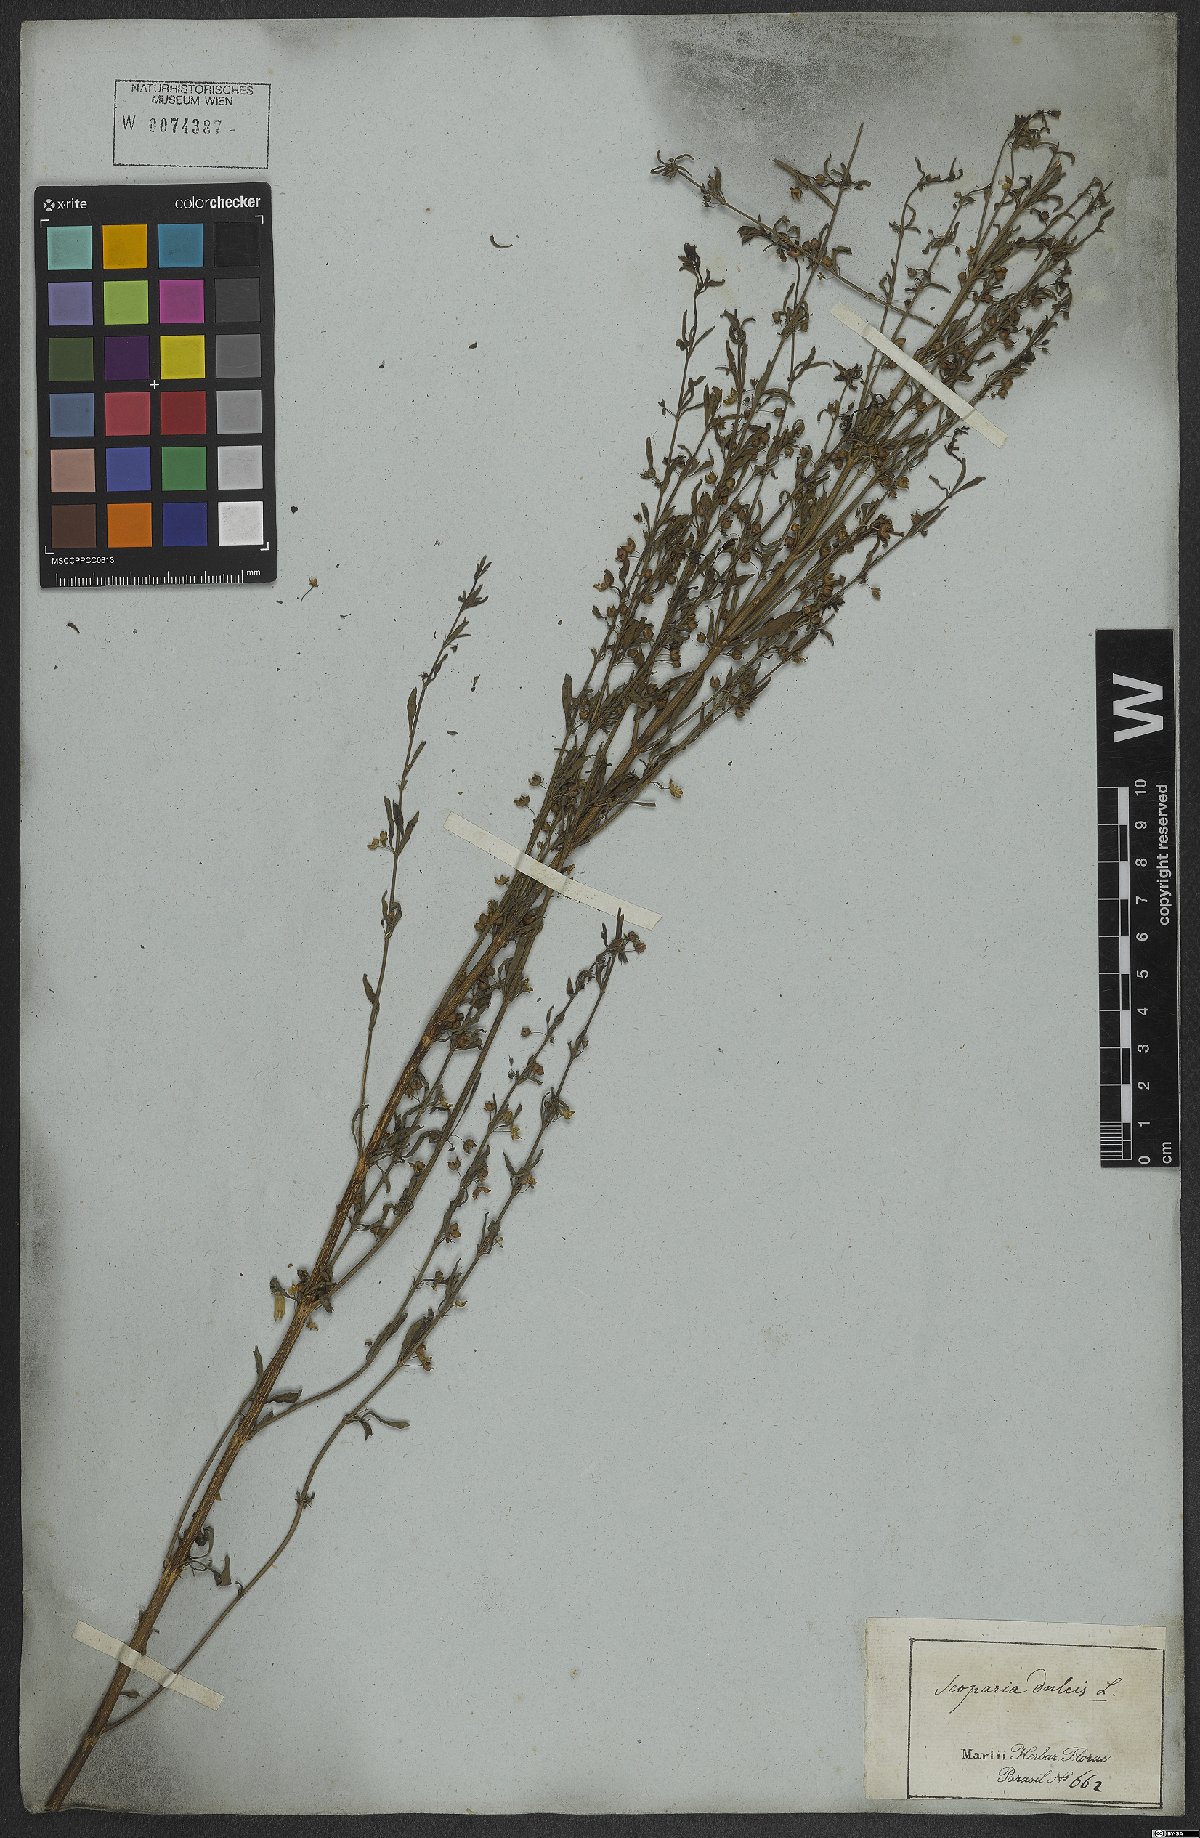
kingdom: Plantae
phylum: Tracheophyta
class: Magnoliopsida
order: Lamiales
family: Plantaginaceae
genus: Scoparia
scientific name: Scoparia dulcis
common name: Scoparia-weed
